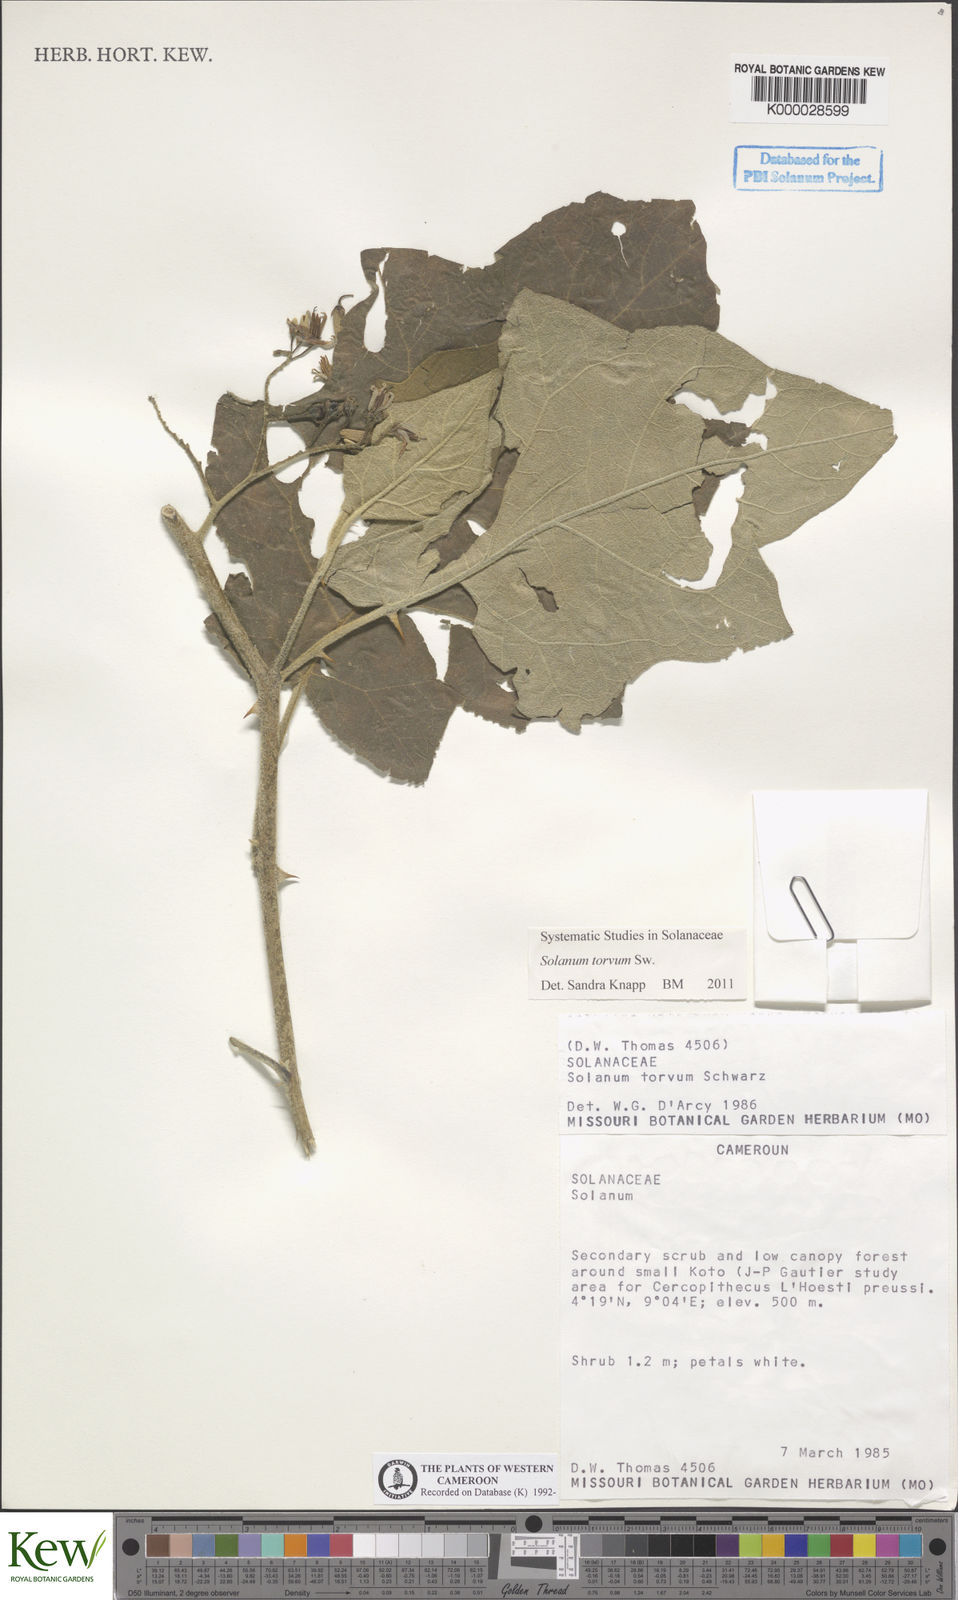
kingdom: Plantae
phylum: Tracheophyta
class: Magnoliopsida
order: Solanales
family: Solanaceae
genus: Solanum
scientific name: Solanum torvum
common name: Turkey berry
